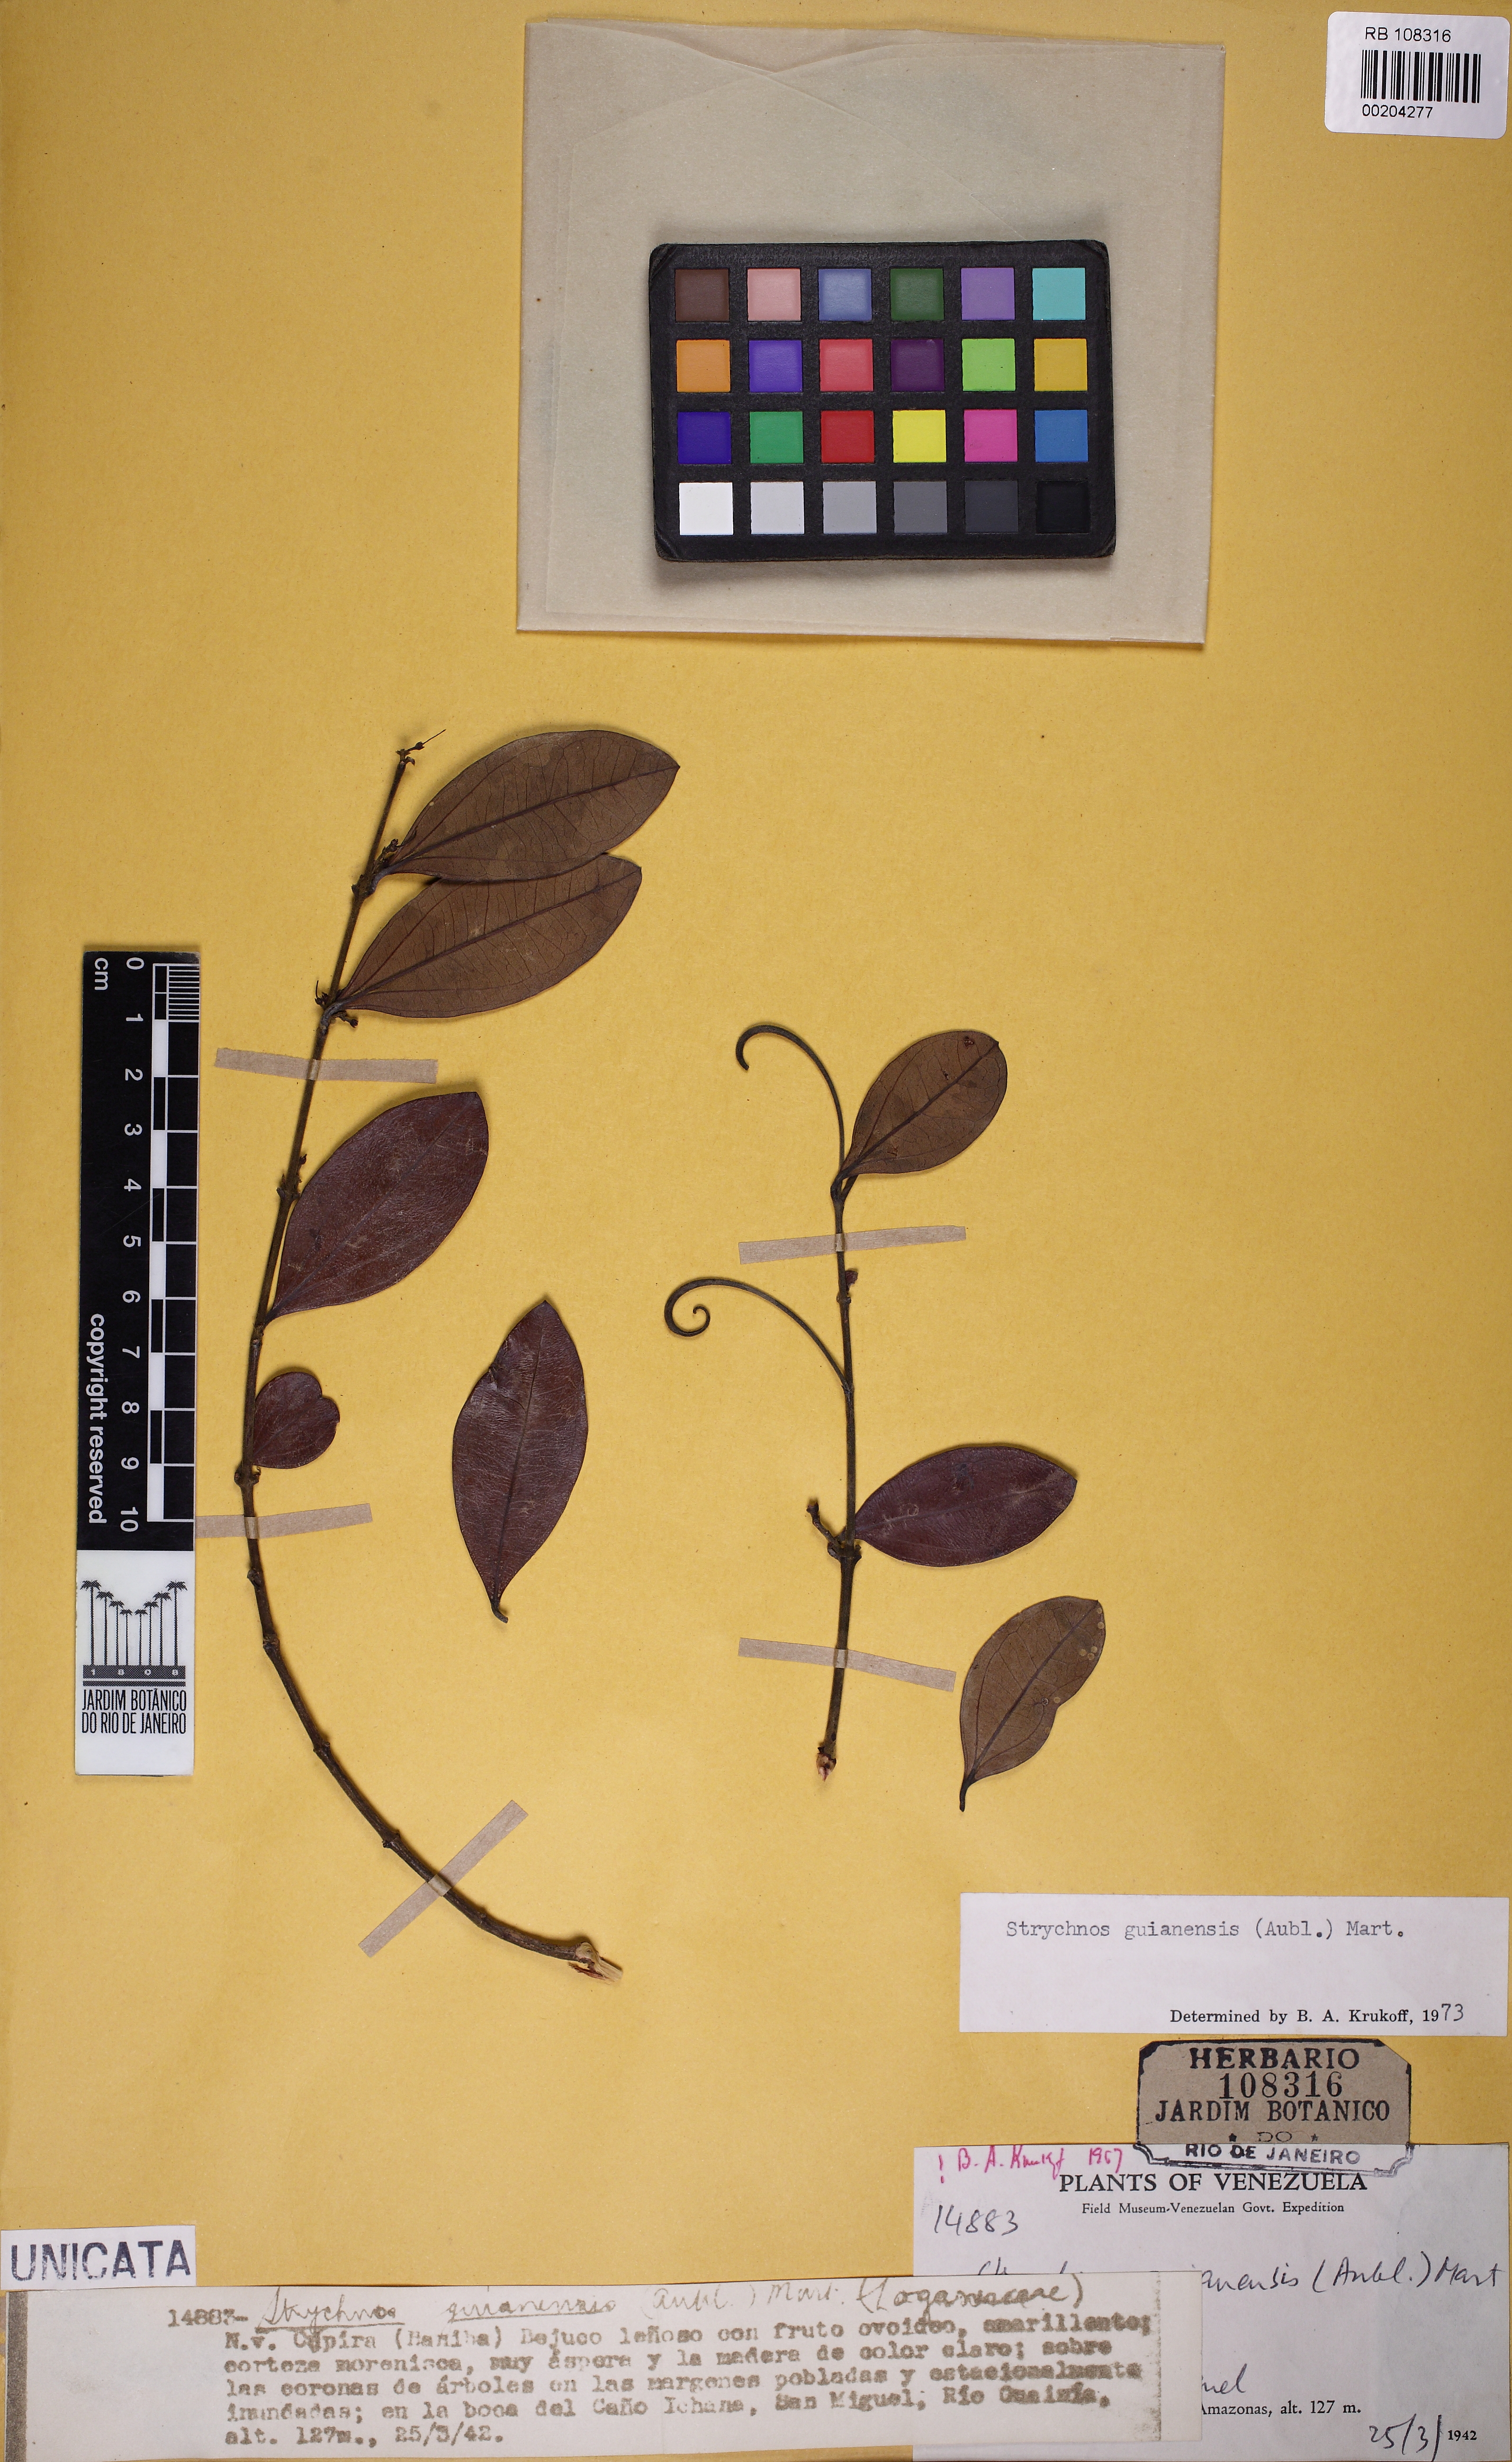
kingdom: Plantae
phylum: Tracheophyta
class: Magnoliopsida
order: Gentianales
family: Loganiaceae
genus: Strychnos
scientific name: Strychnos guianensis
